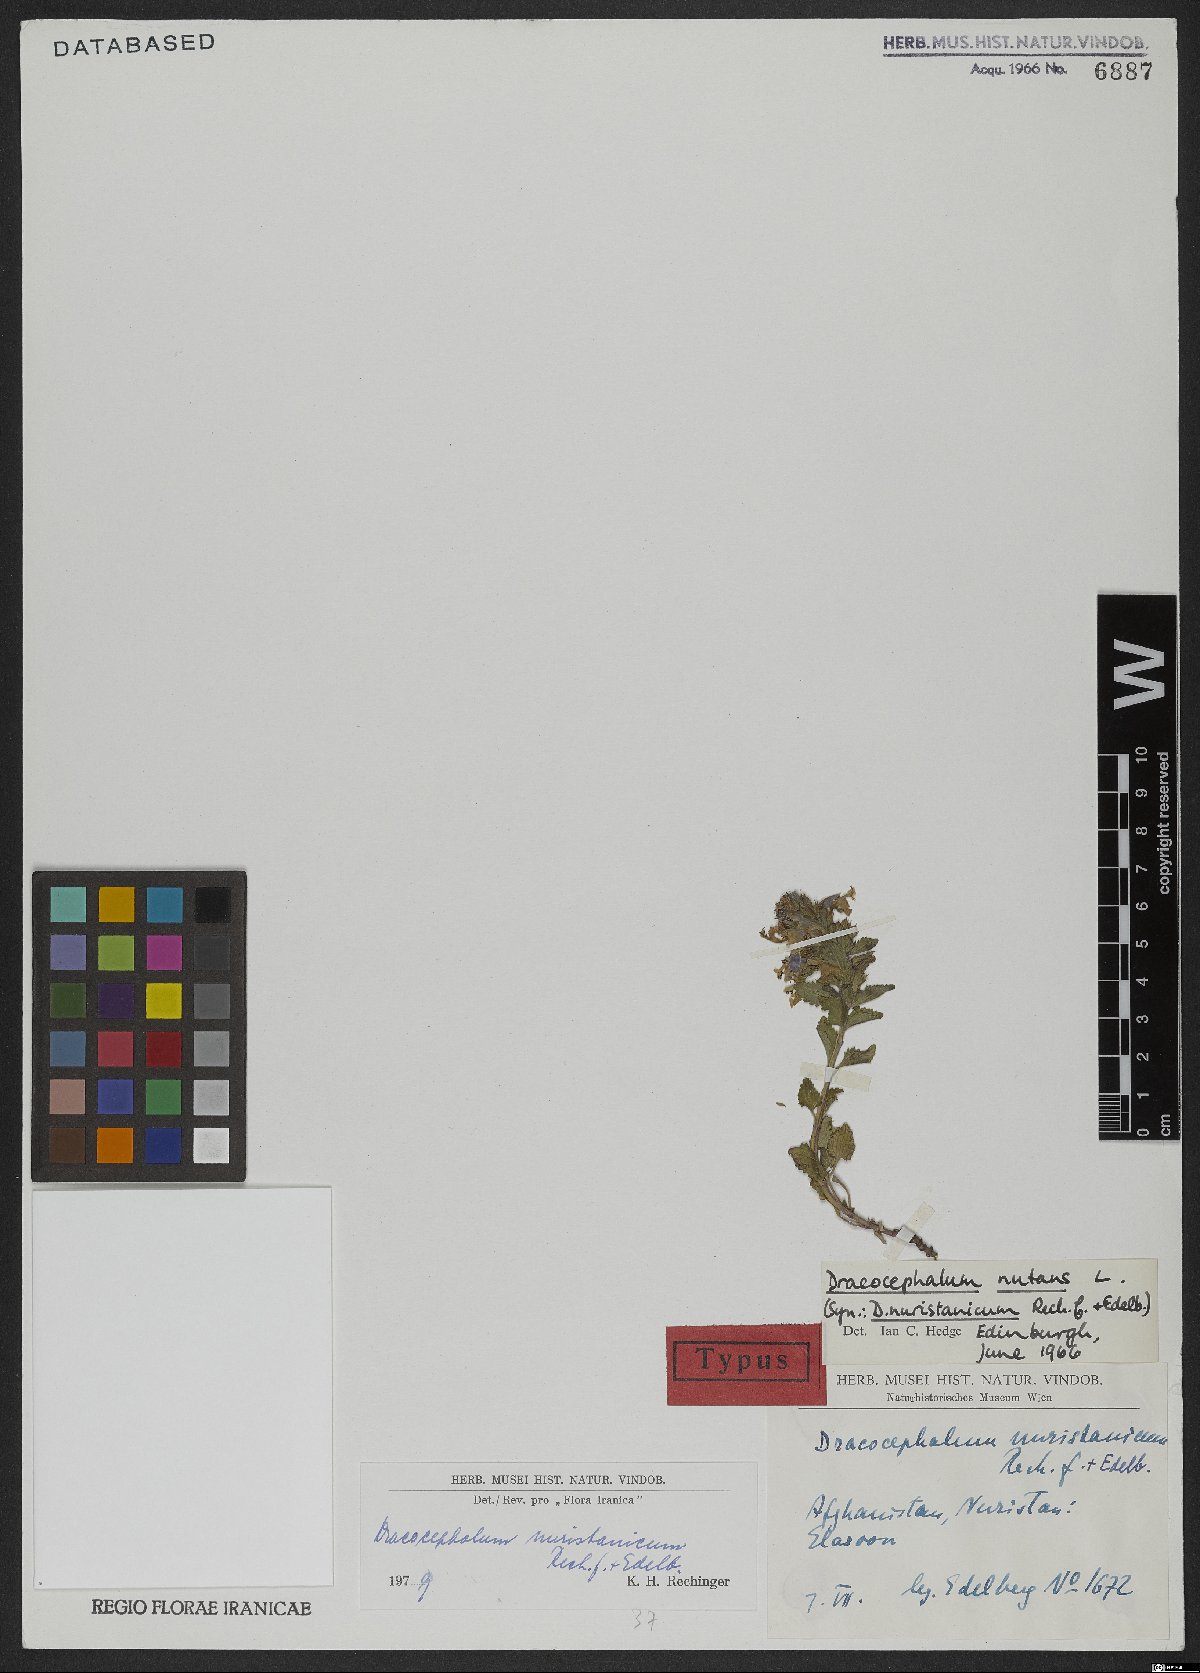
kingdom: Plantae
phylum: Tracheophyta
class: Magnoliopsida
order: Lamiales
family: Lamiaceae
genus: Dracocephalum
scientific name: Dracocephalum nuristanicum
